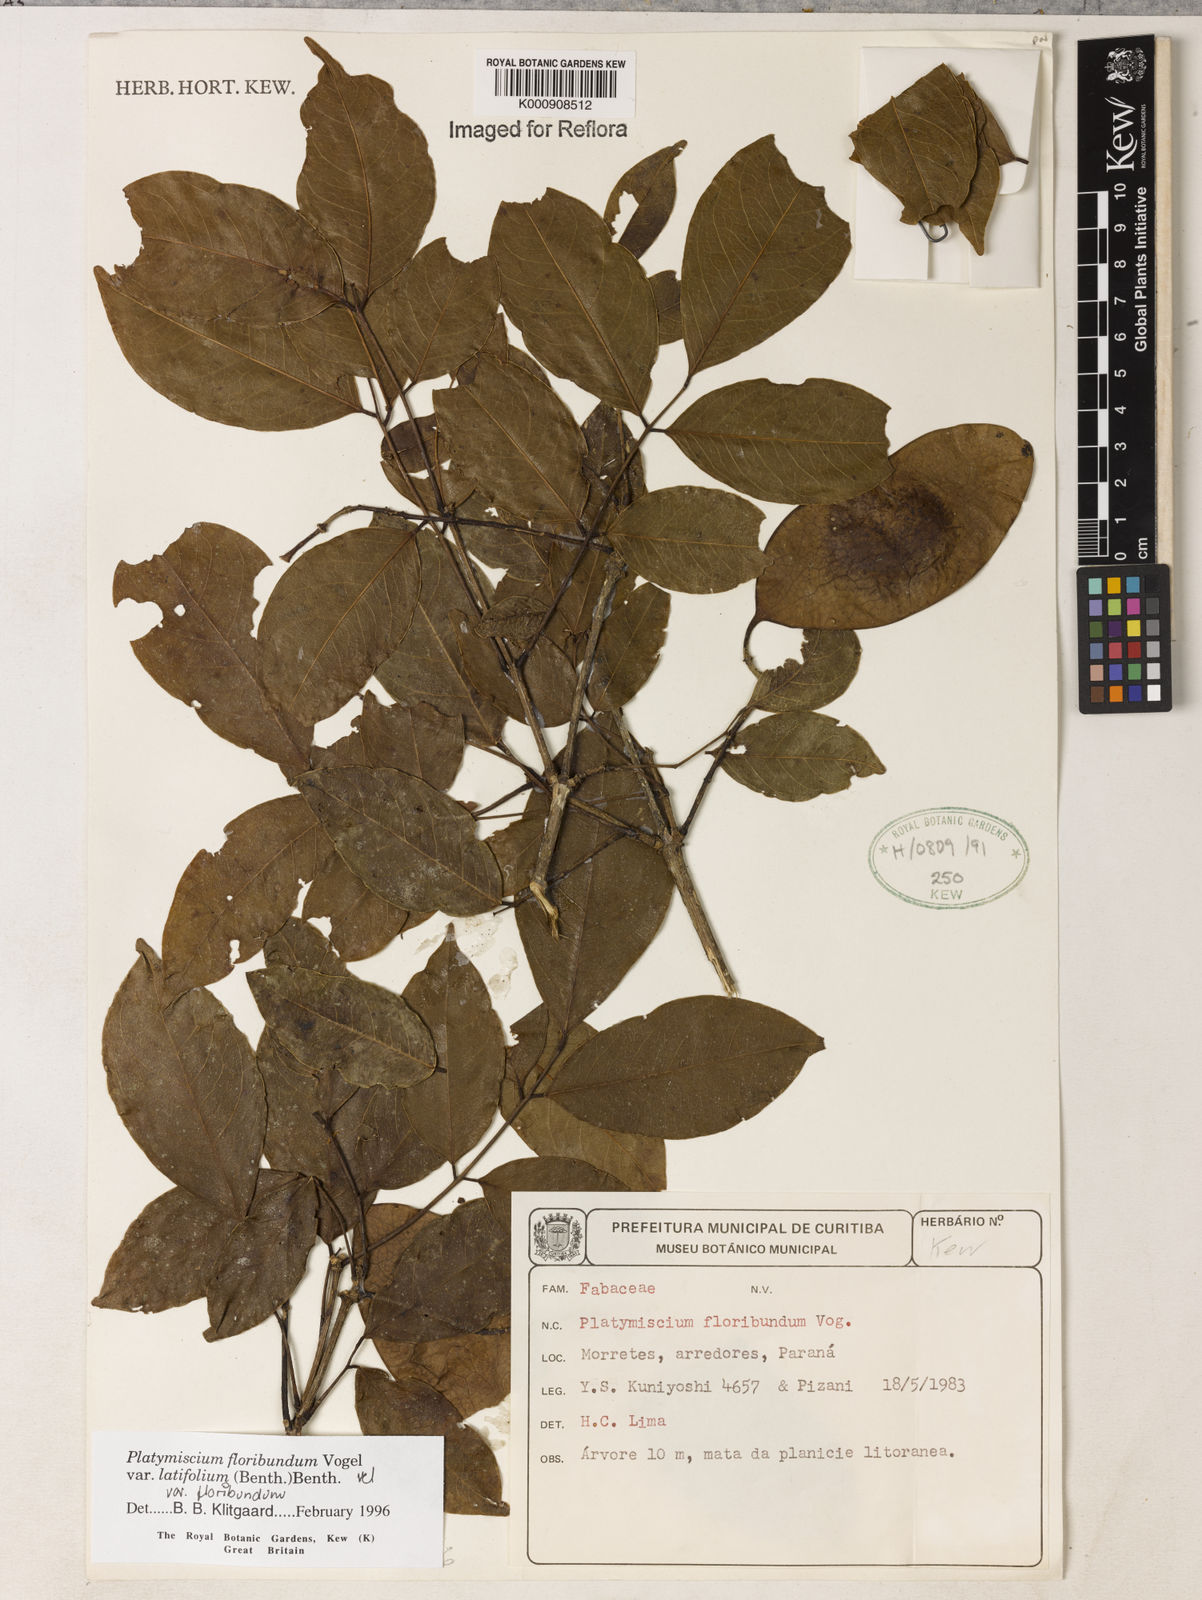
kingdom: Plantae
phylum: Tracheophyta
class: Magnoliopsida
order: Fabales
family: Fabaceae
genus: Platymiscium
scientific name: Platymiscium floribundum
